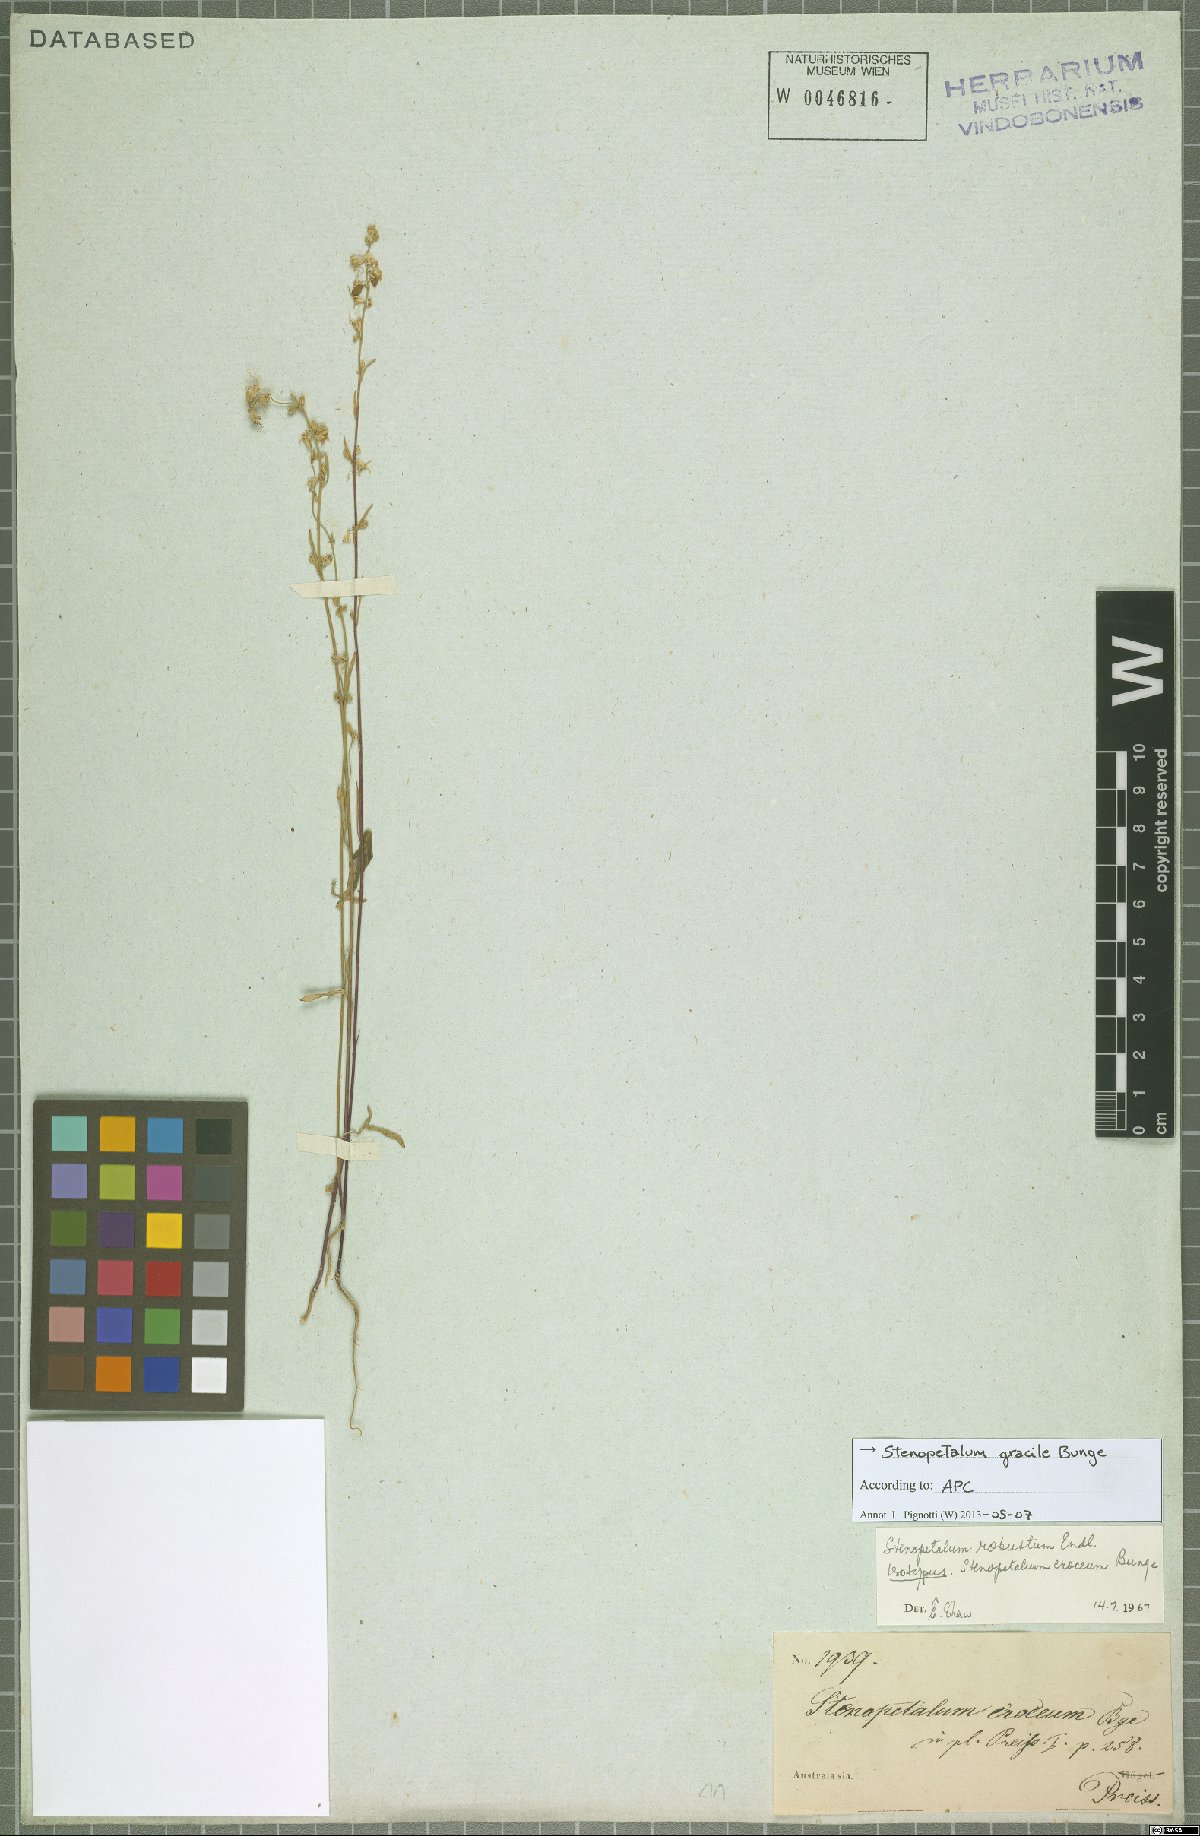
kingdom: Plantae
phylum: Tracheophyta
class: Magnoliopsida
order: Brassicales
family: Brassicaceae
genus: Stenopetalum
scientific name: Stenopetalum robustum
